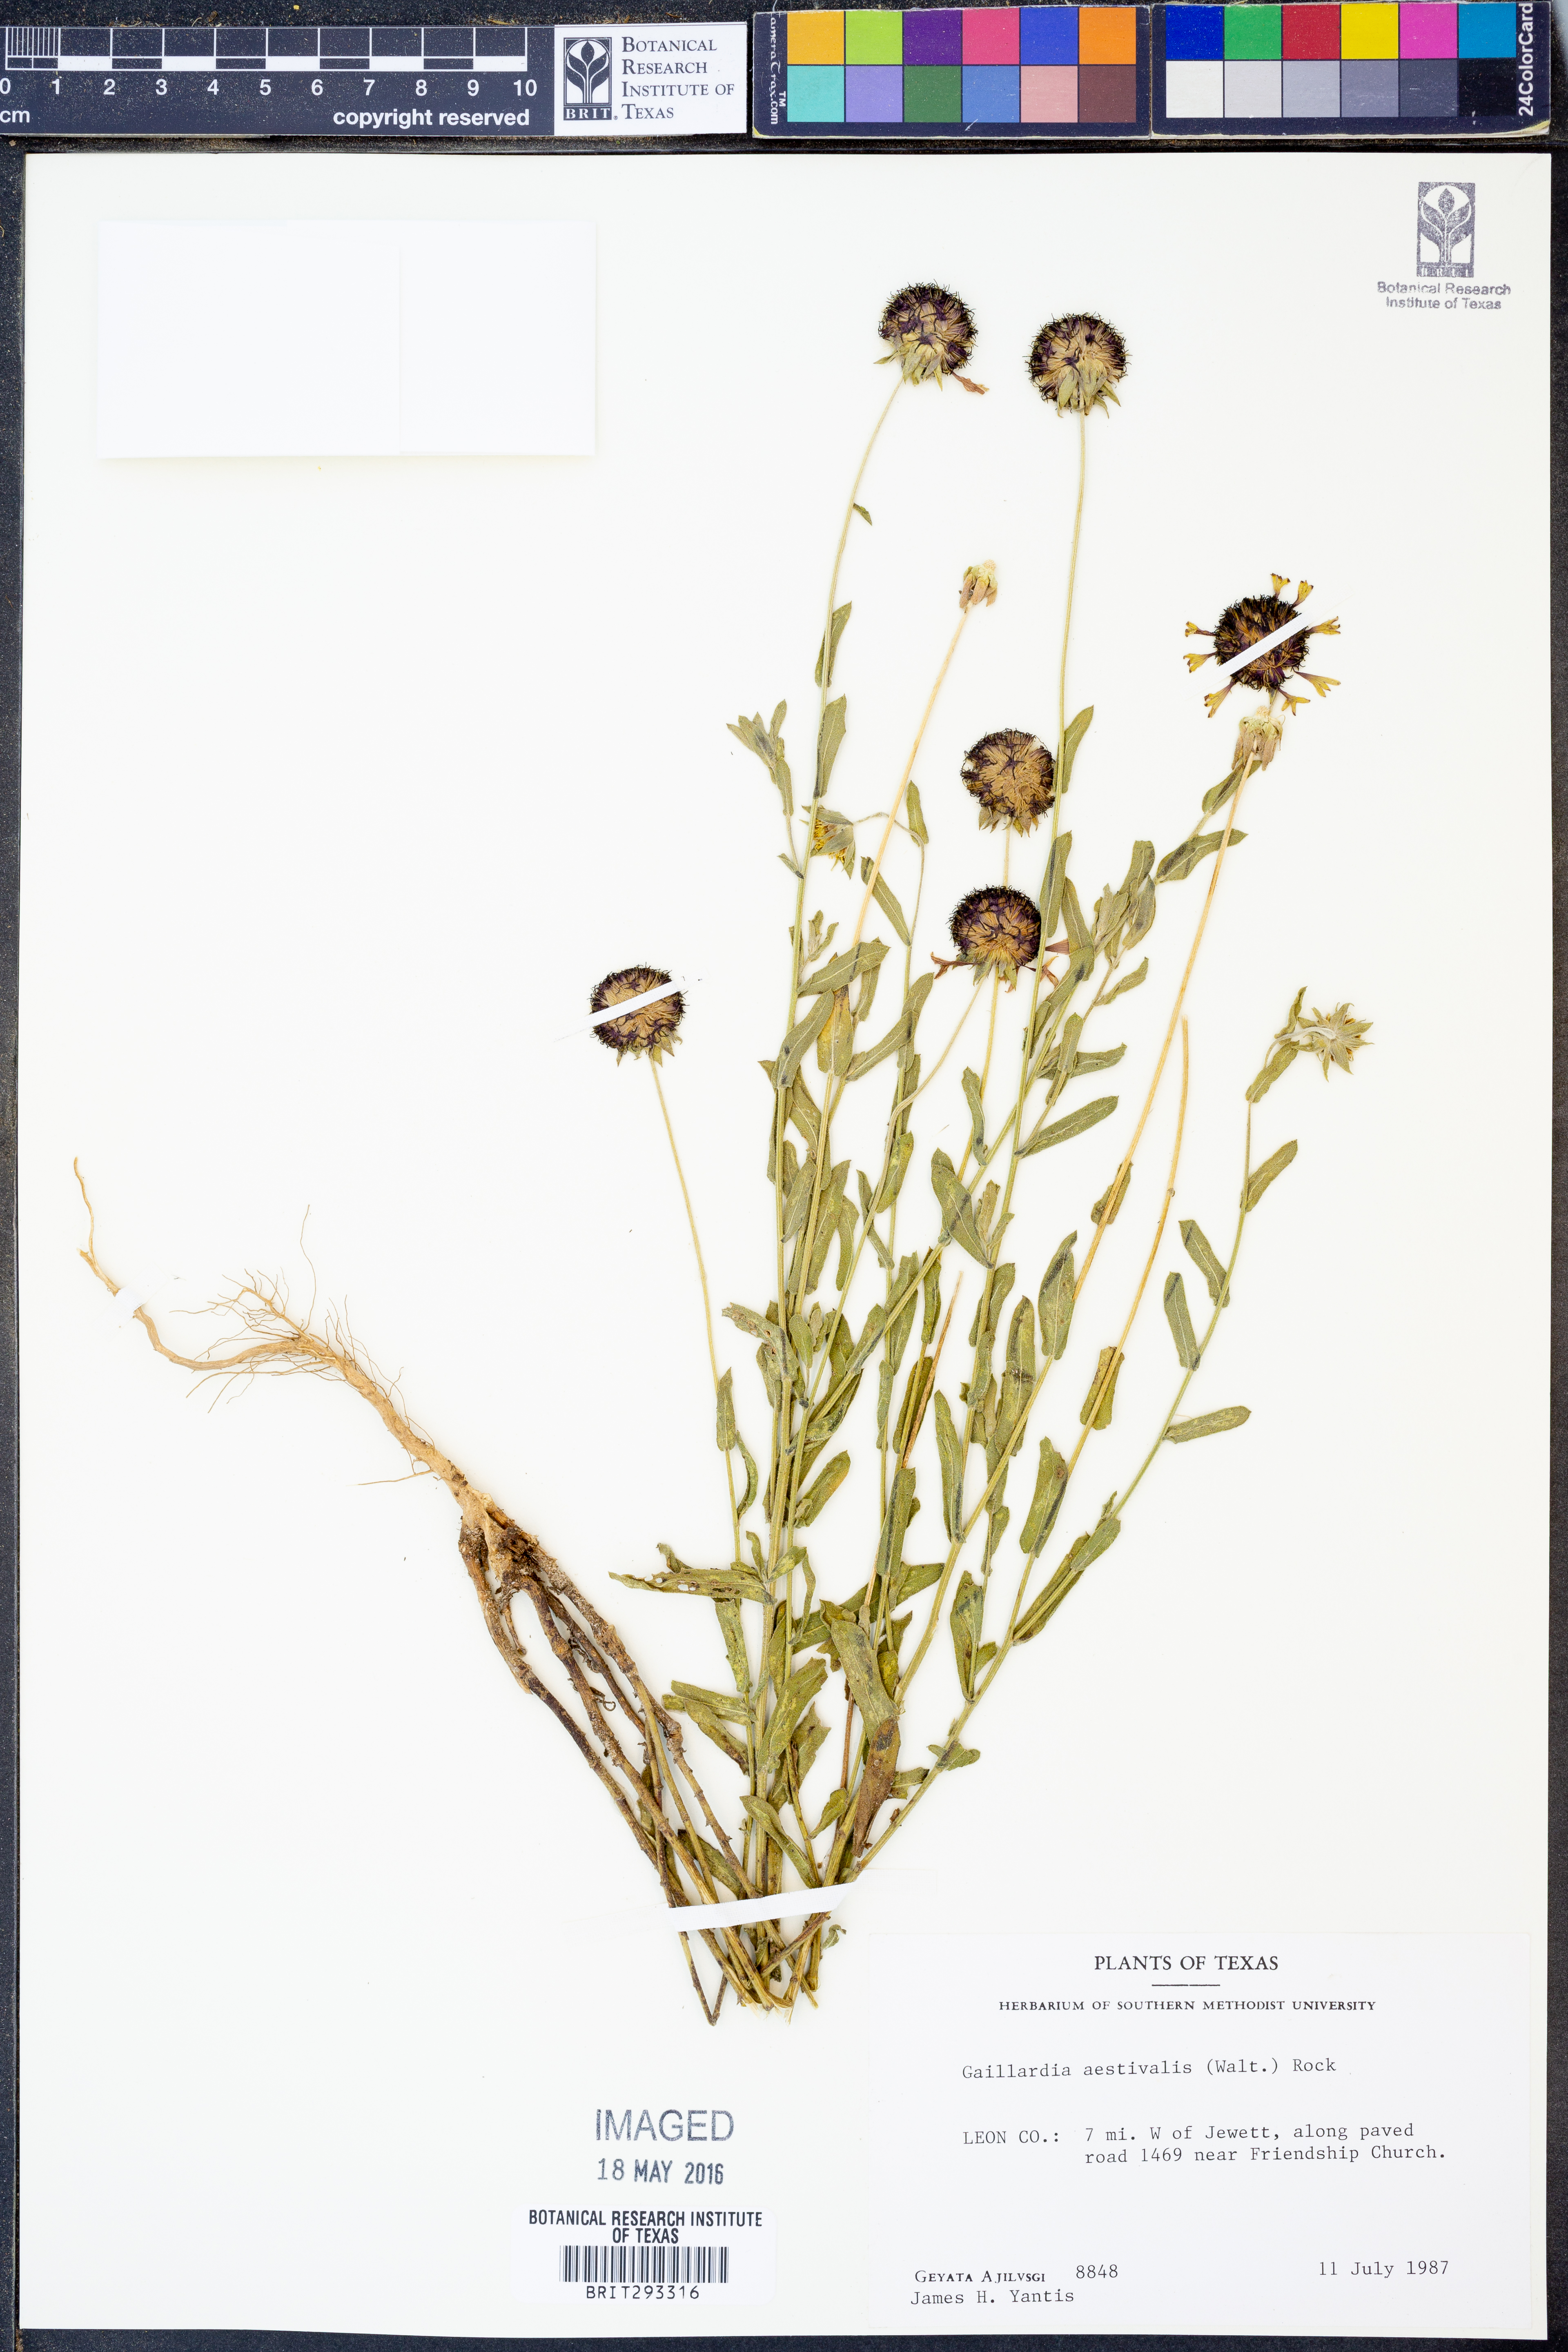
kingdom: Plantae
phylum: Tracheophyta
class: Magnoliopsida
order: Asterales
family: Asteraceae
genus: Gaillardia
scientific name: Gaillardia aestivalis
